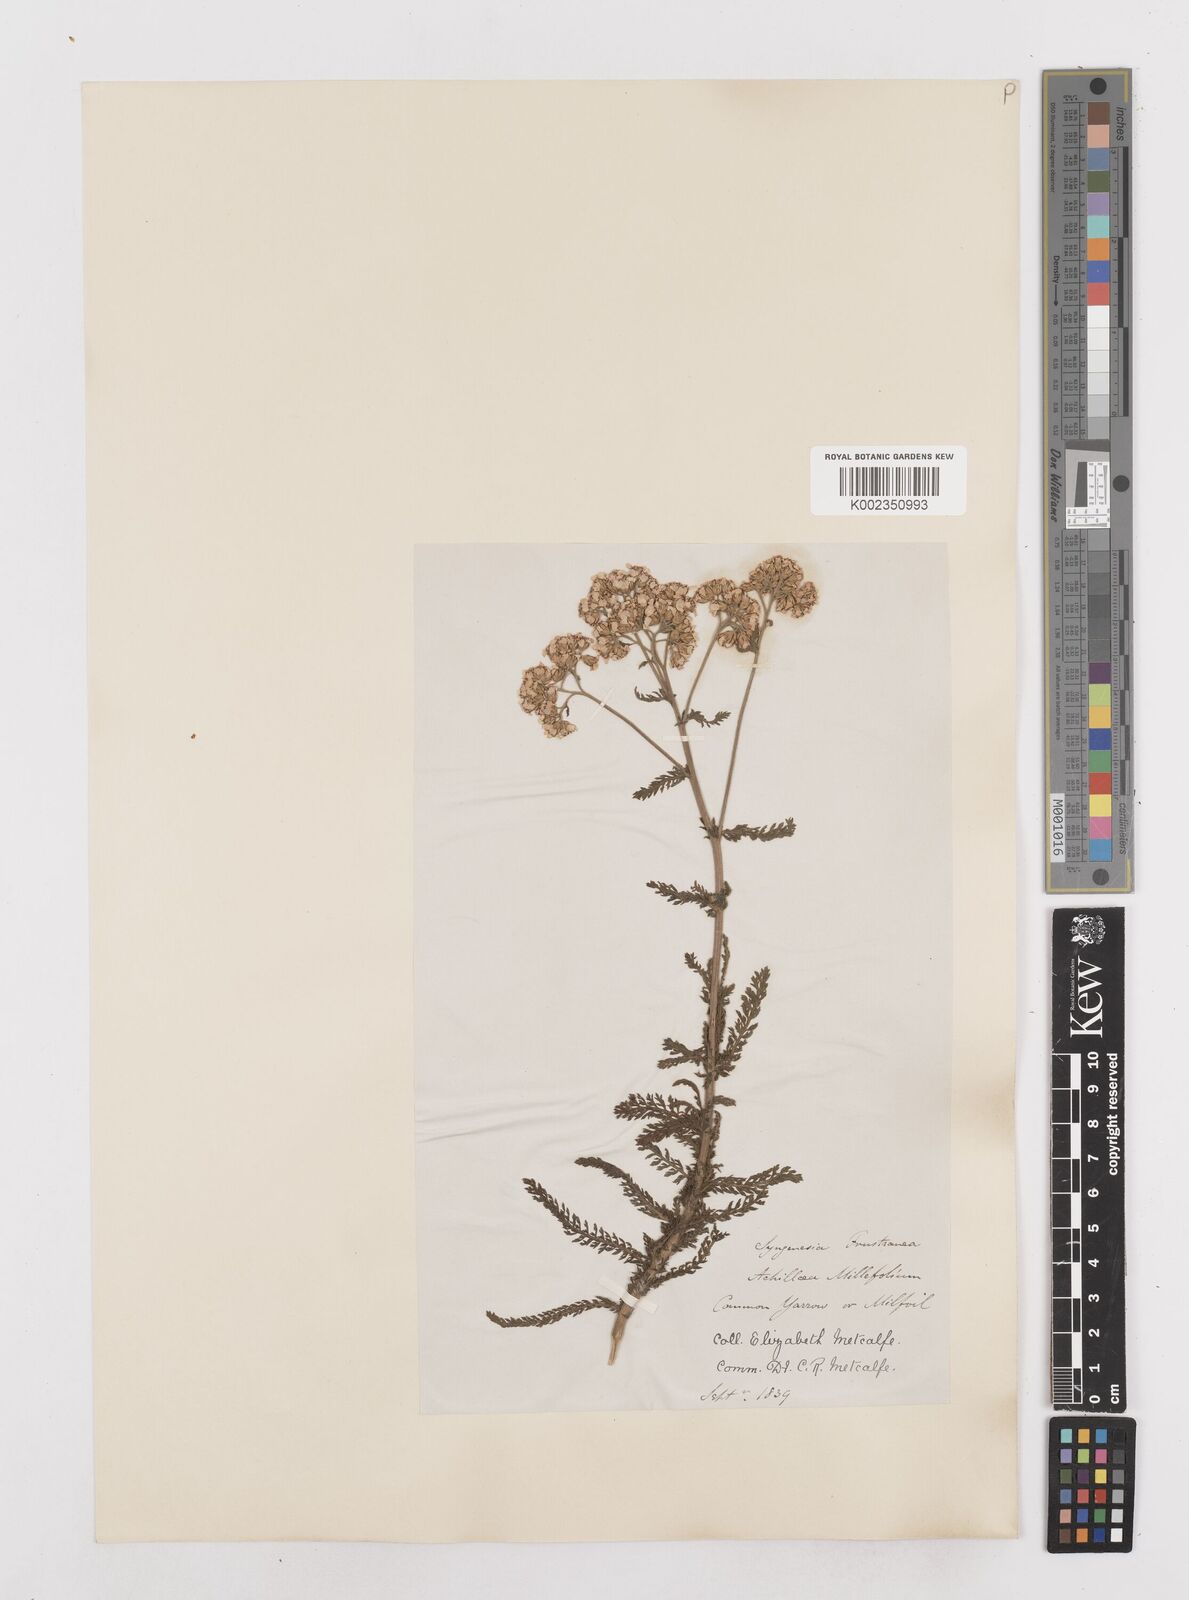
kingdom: Plantae
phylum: Tracheophyta
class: Magnoliopsida
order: Asterales
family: Asteraceae
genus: Achillea
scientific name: Achillea millefolium
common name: Yarrow
